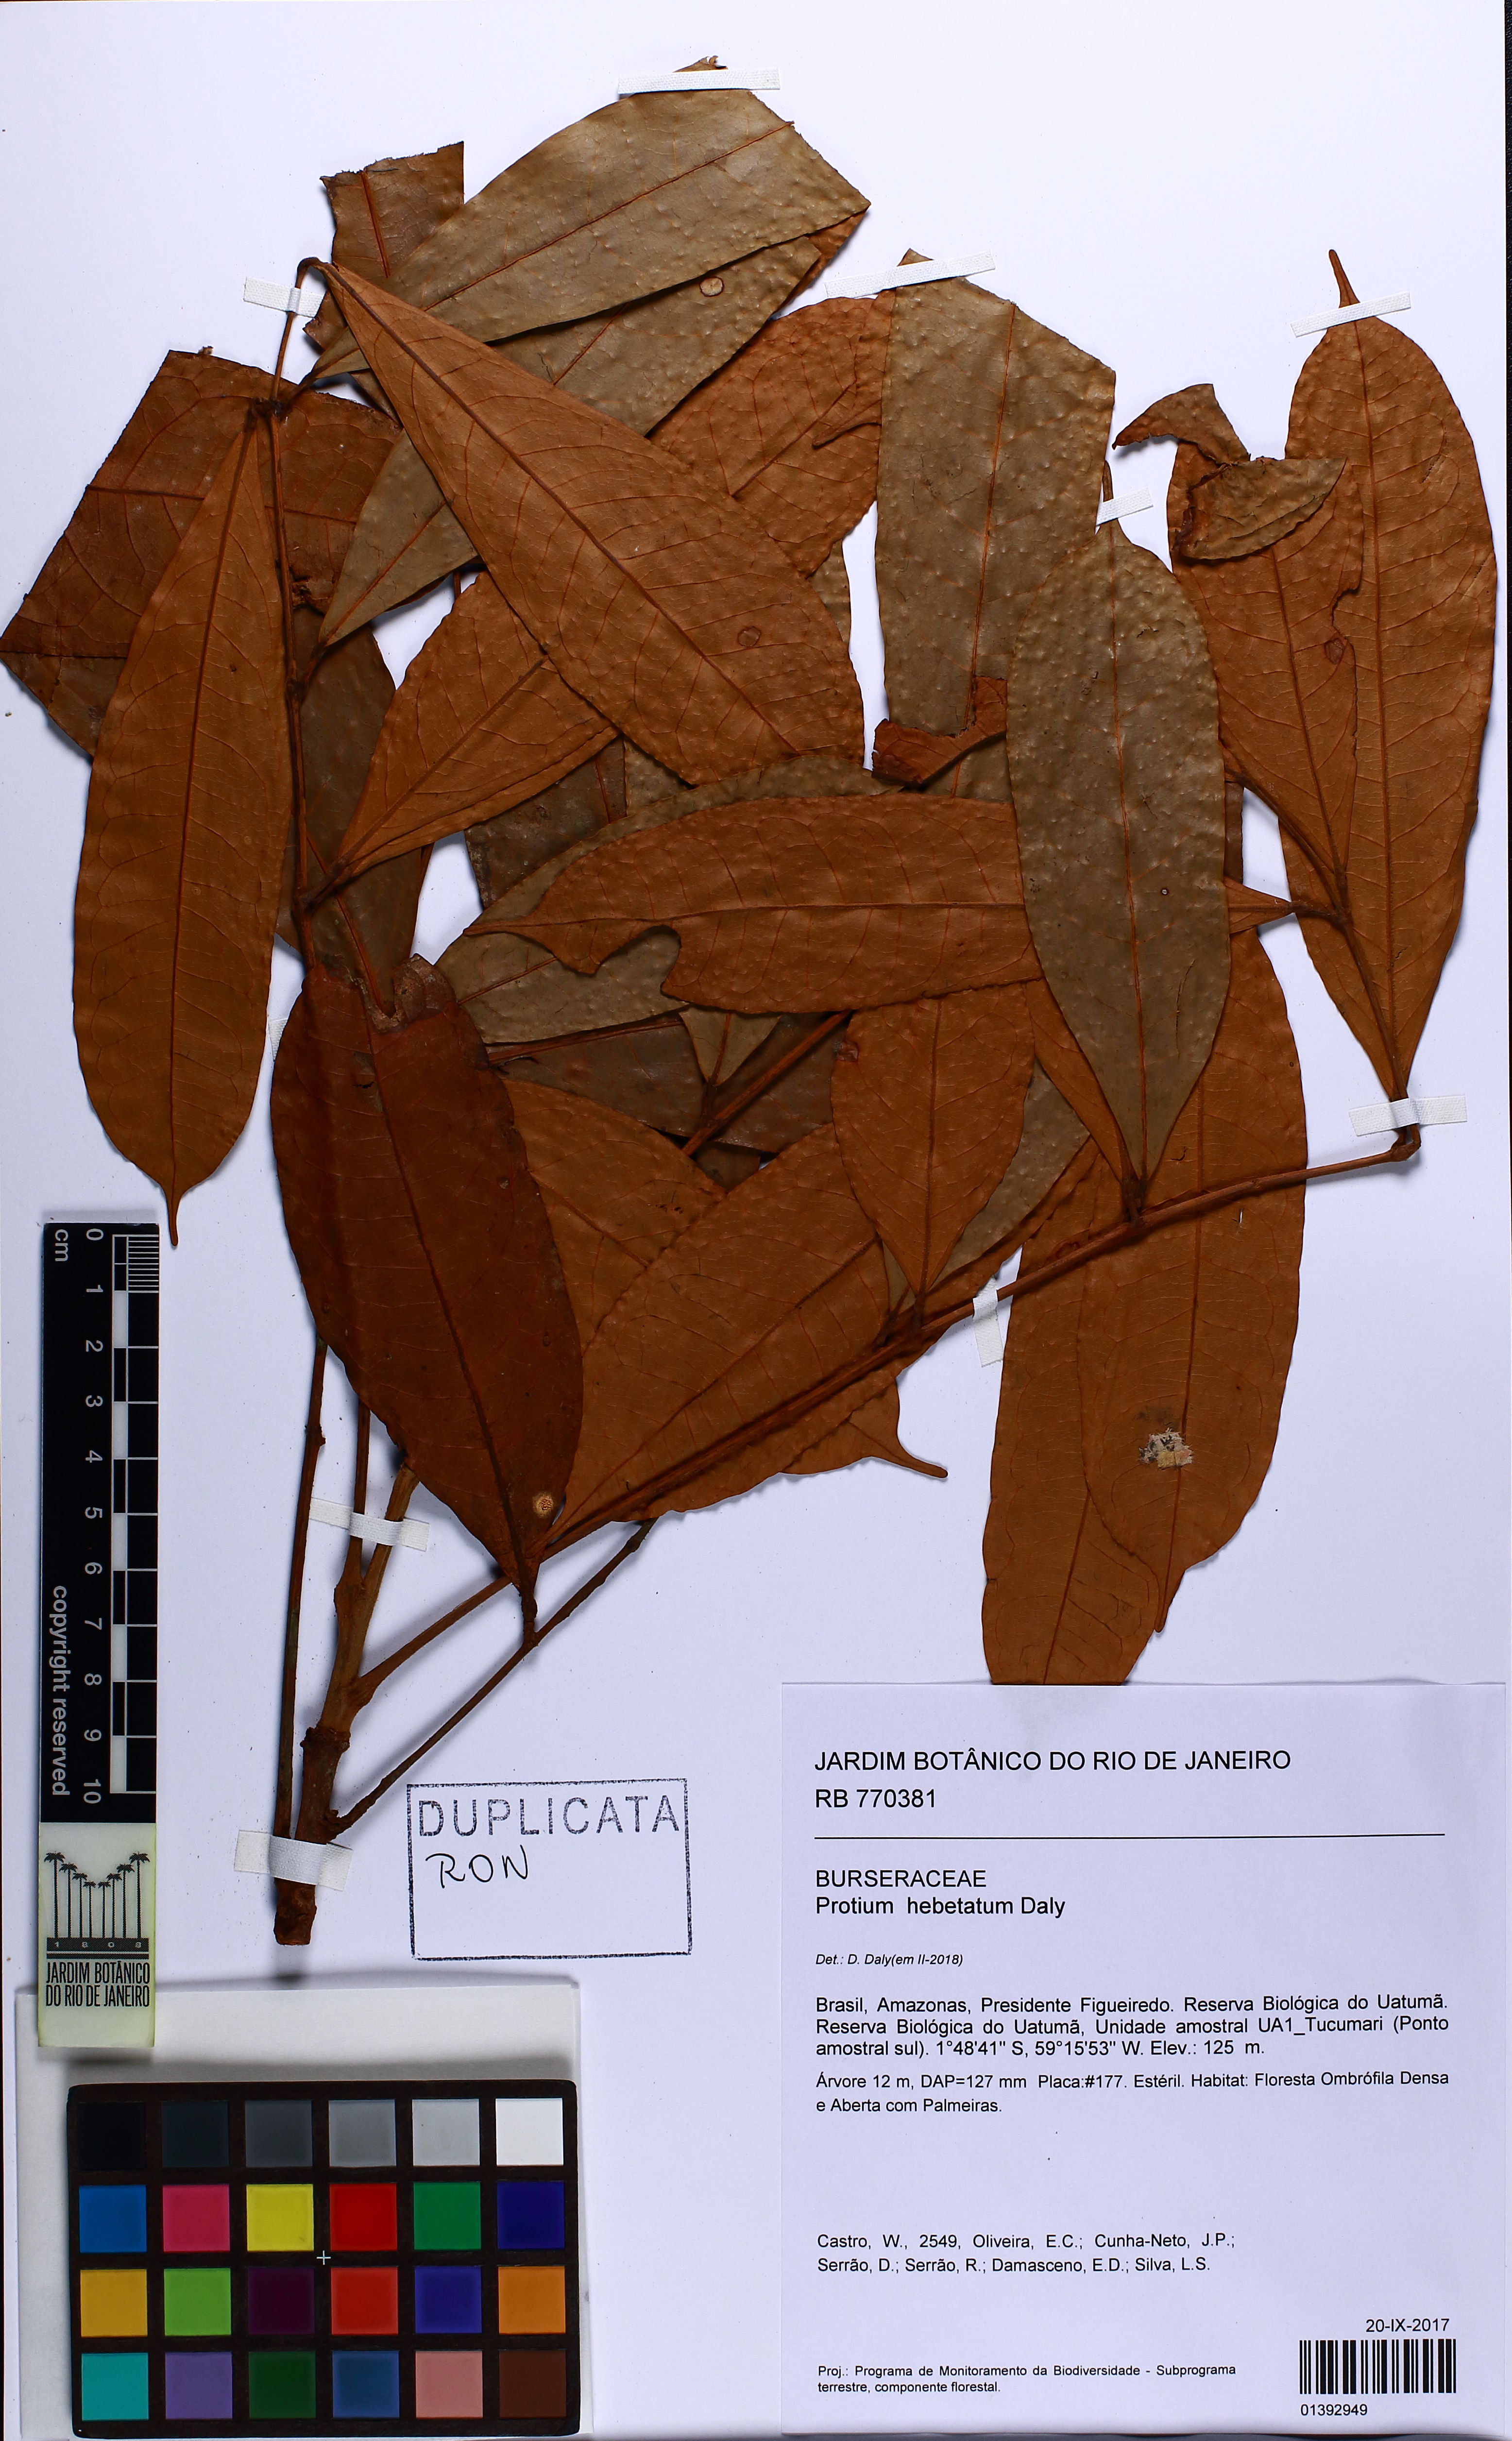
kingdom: Plantae
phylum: Tracheophyta
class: Magnoliopsida
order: Sapindales
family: Burseraceae
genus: Protium
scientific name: Protium hebetatum
